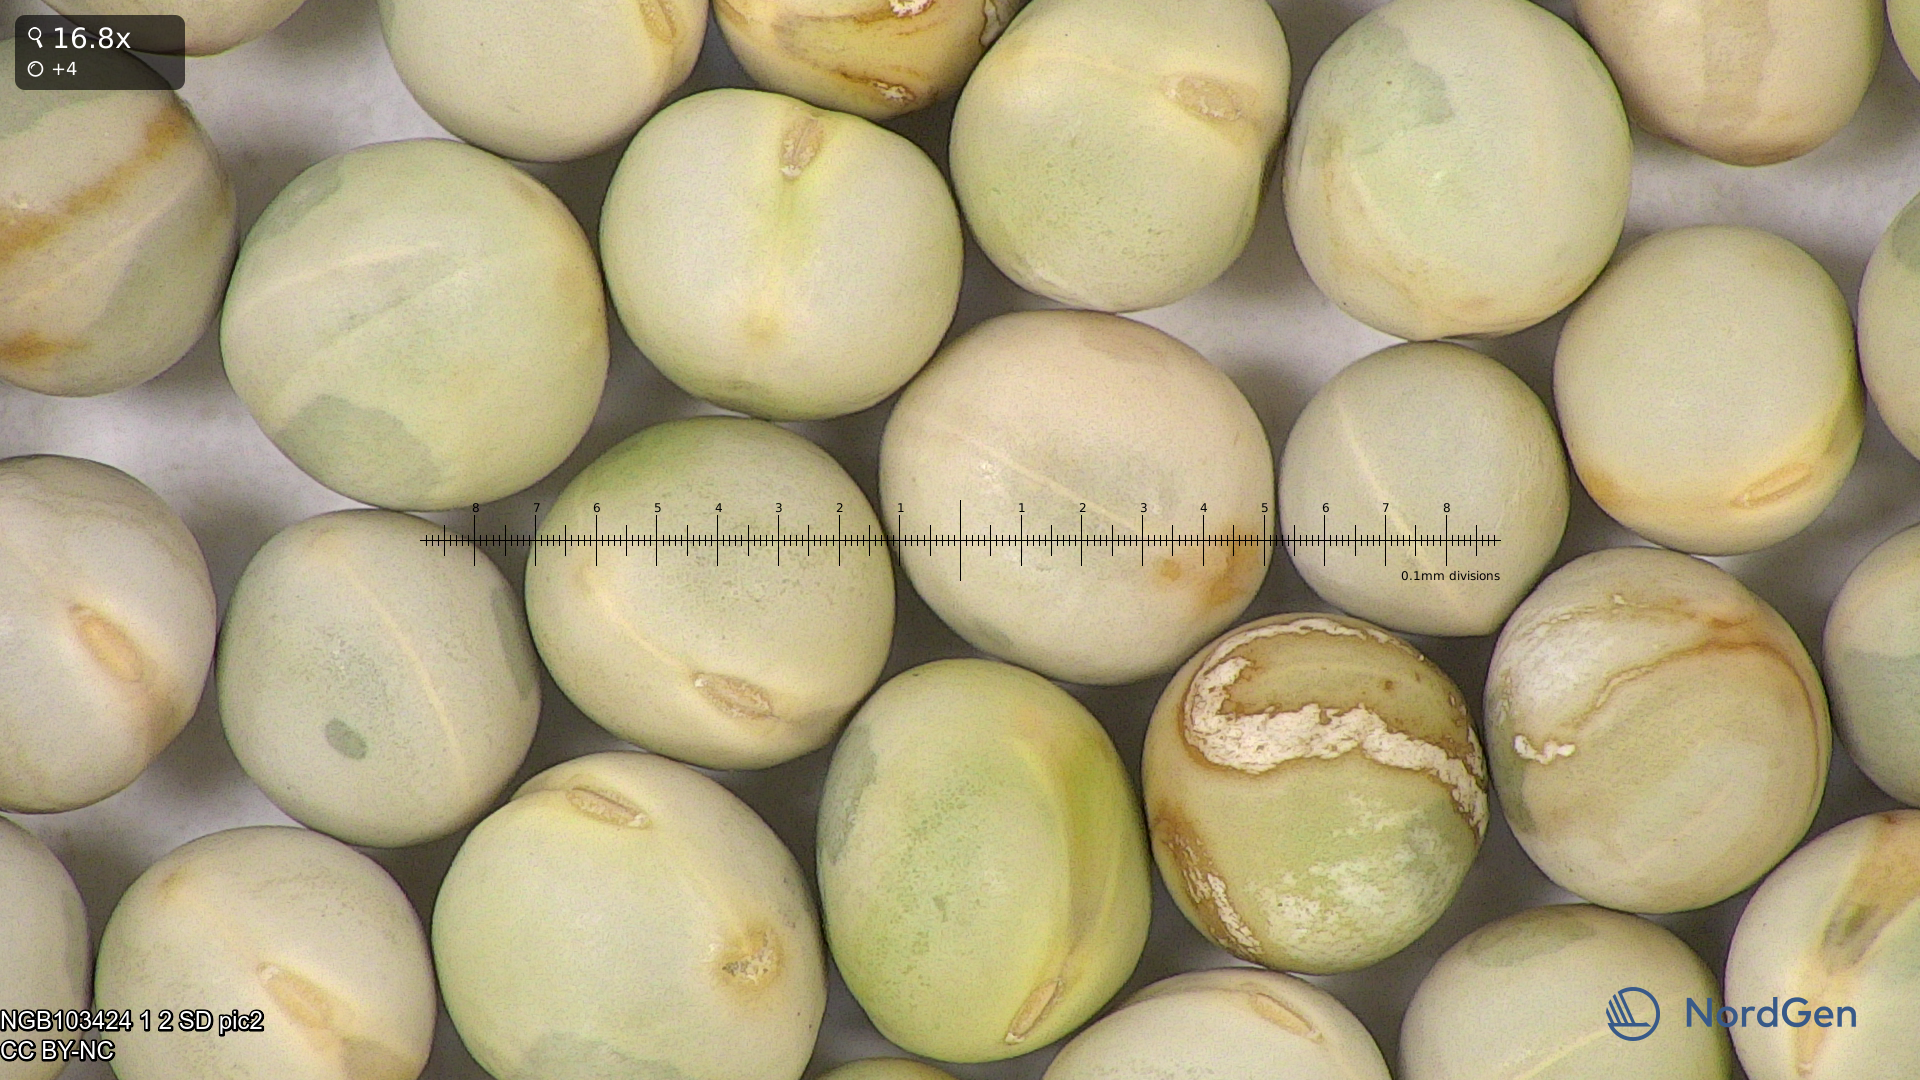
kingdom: Plantae
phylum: Tracheophyta
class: Magnoliopsida
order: Fabales
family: Fabaceae
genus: Lathyrus
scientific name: Lathyrus oleraceus
